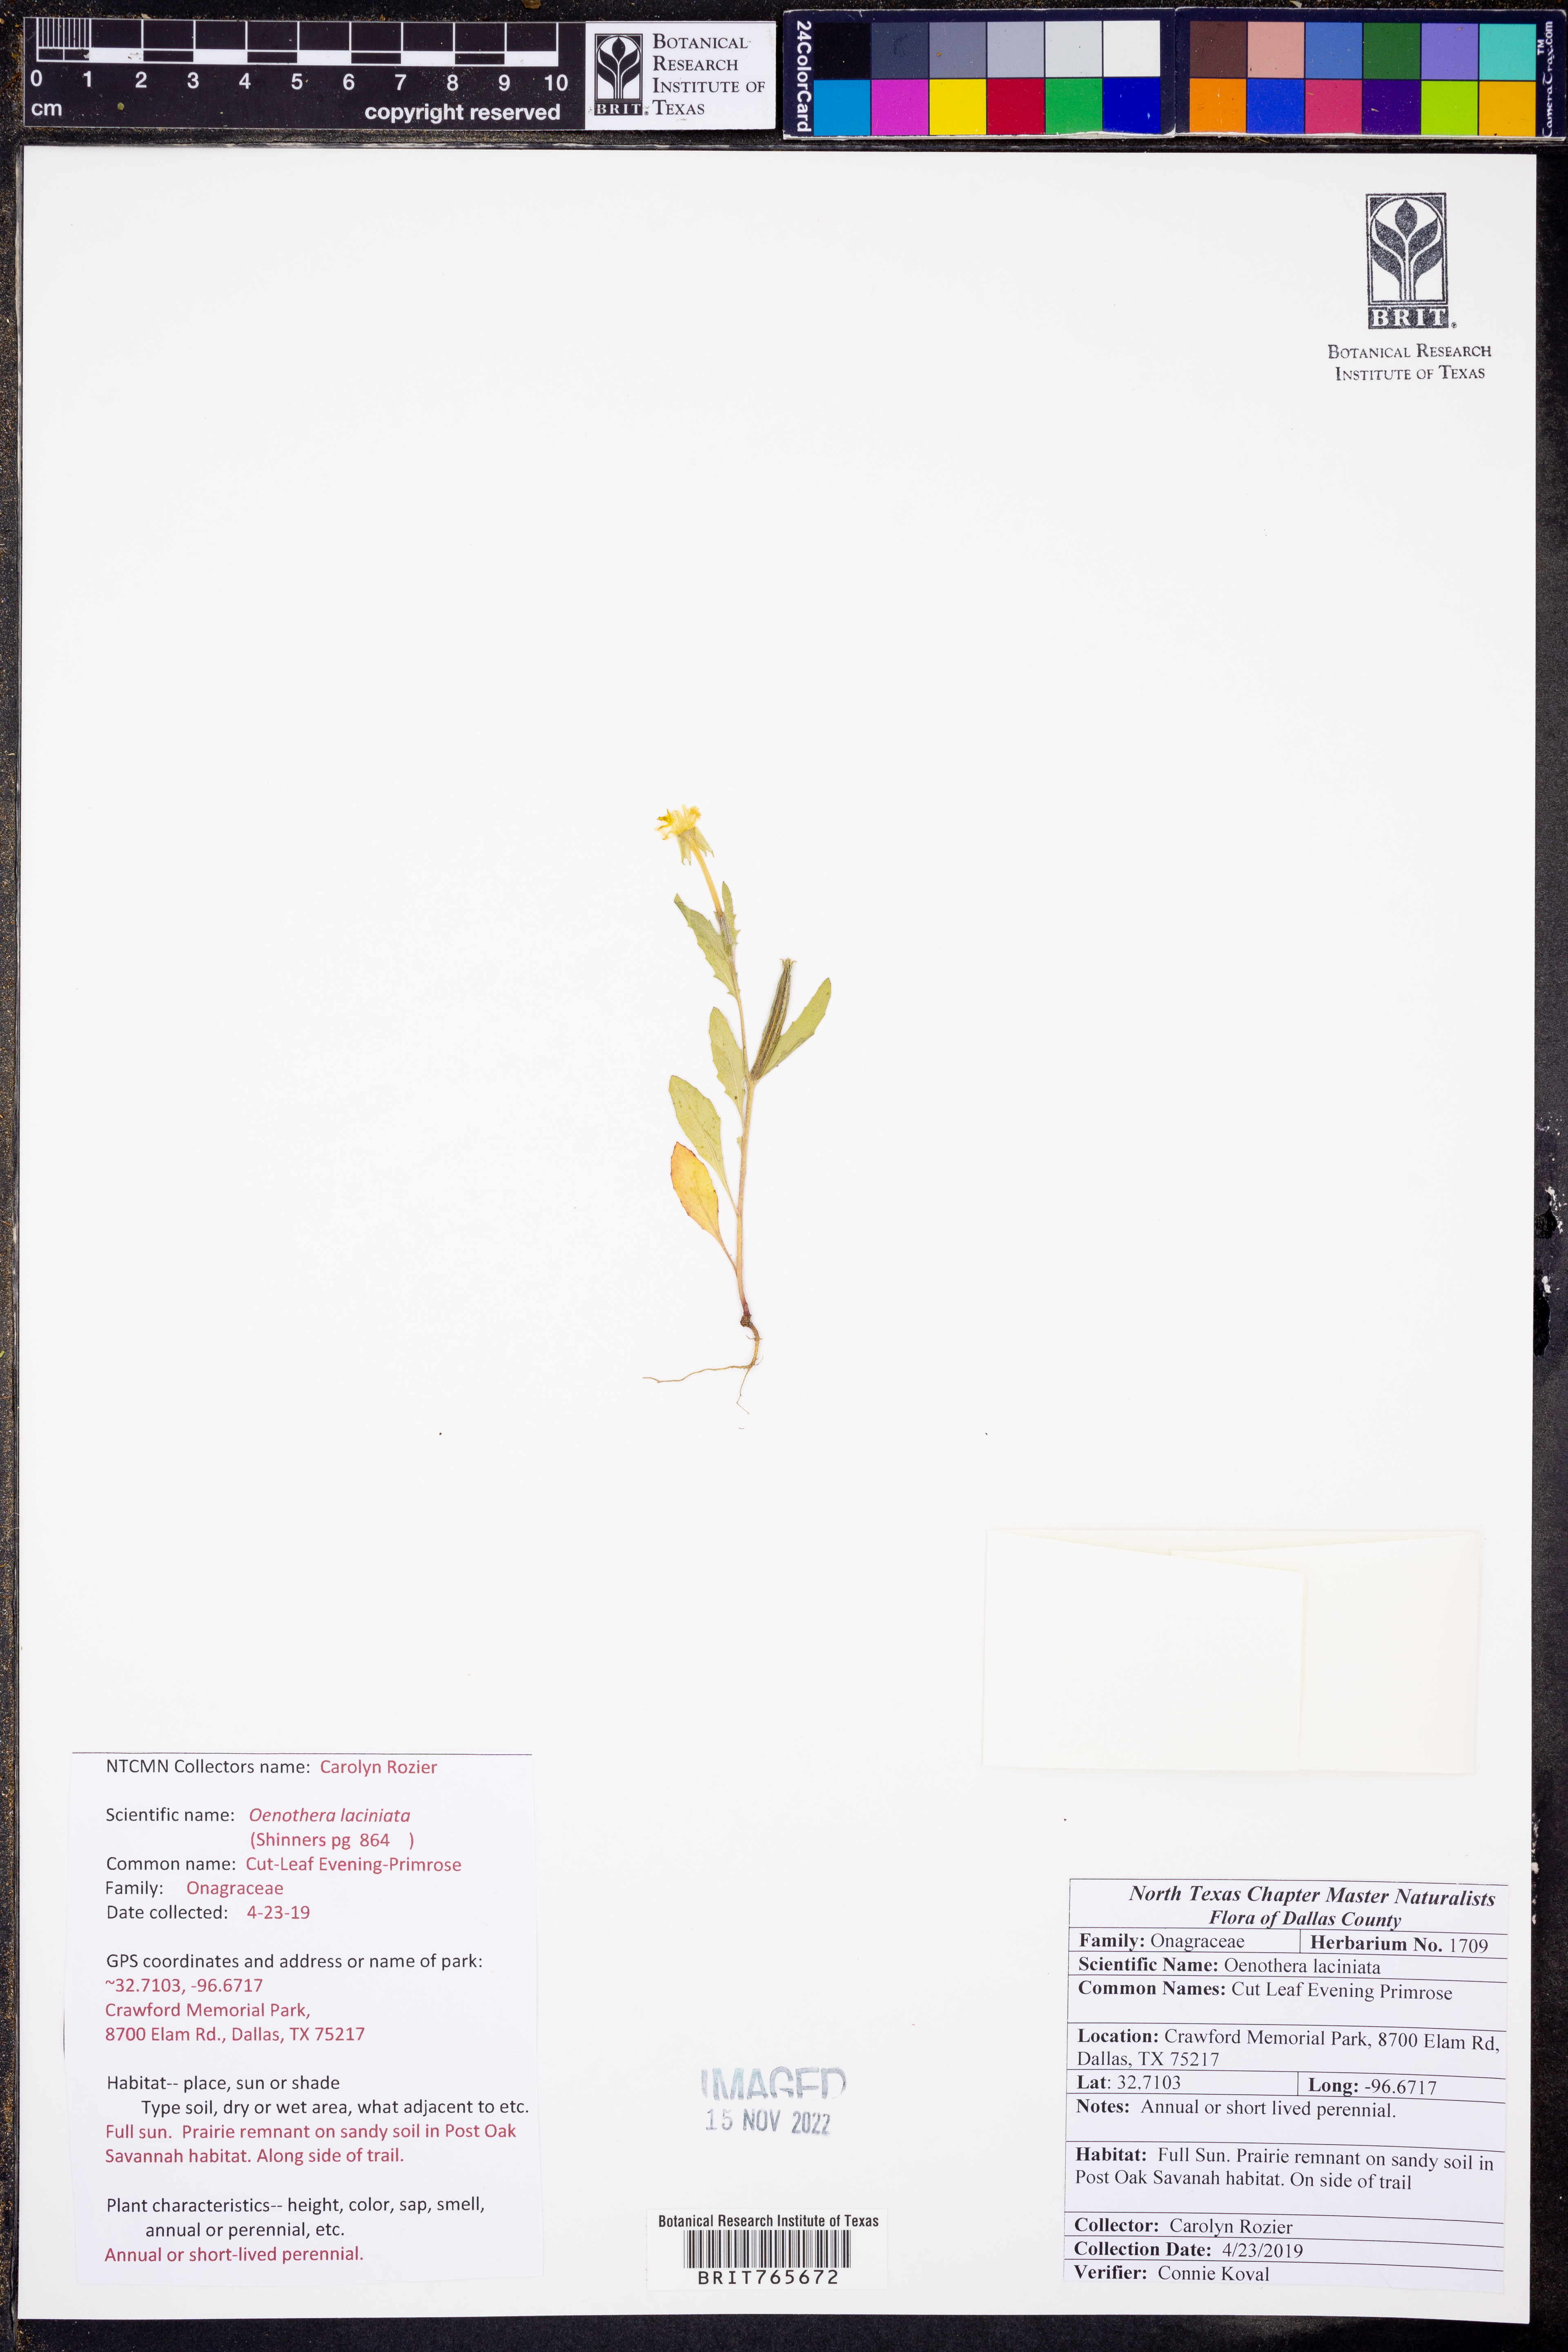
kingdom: Plantae
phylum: Tracheophyta
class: Magnoliopsida
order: Myrtales
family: Onagraceae
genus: Oenothera
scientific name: Oenothera laciniata
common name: Cut-leaved evening-primrose
